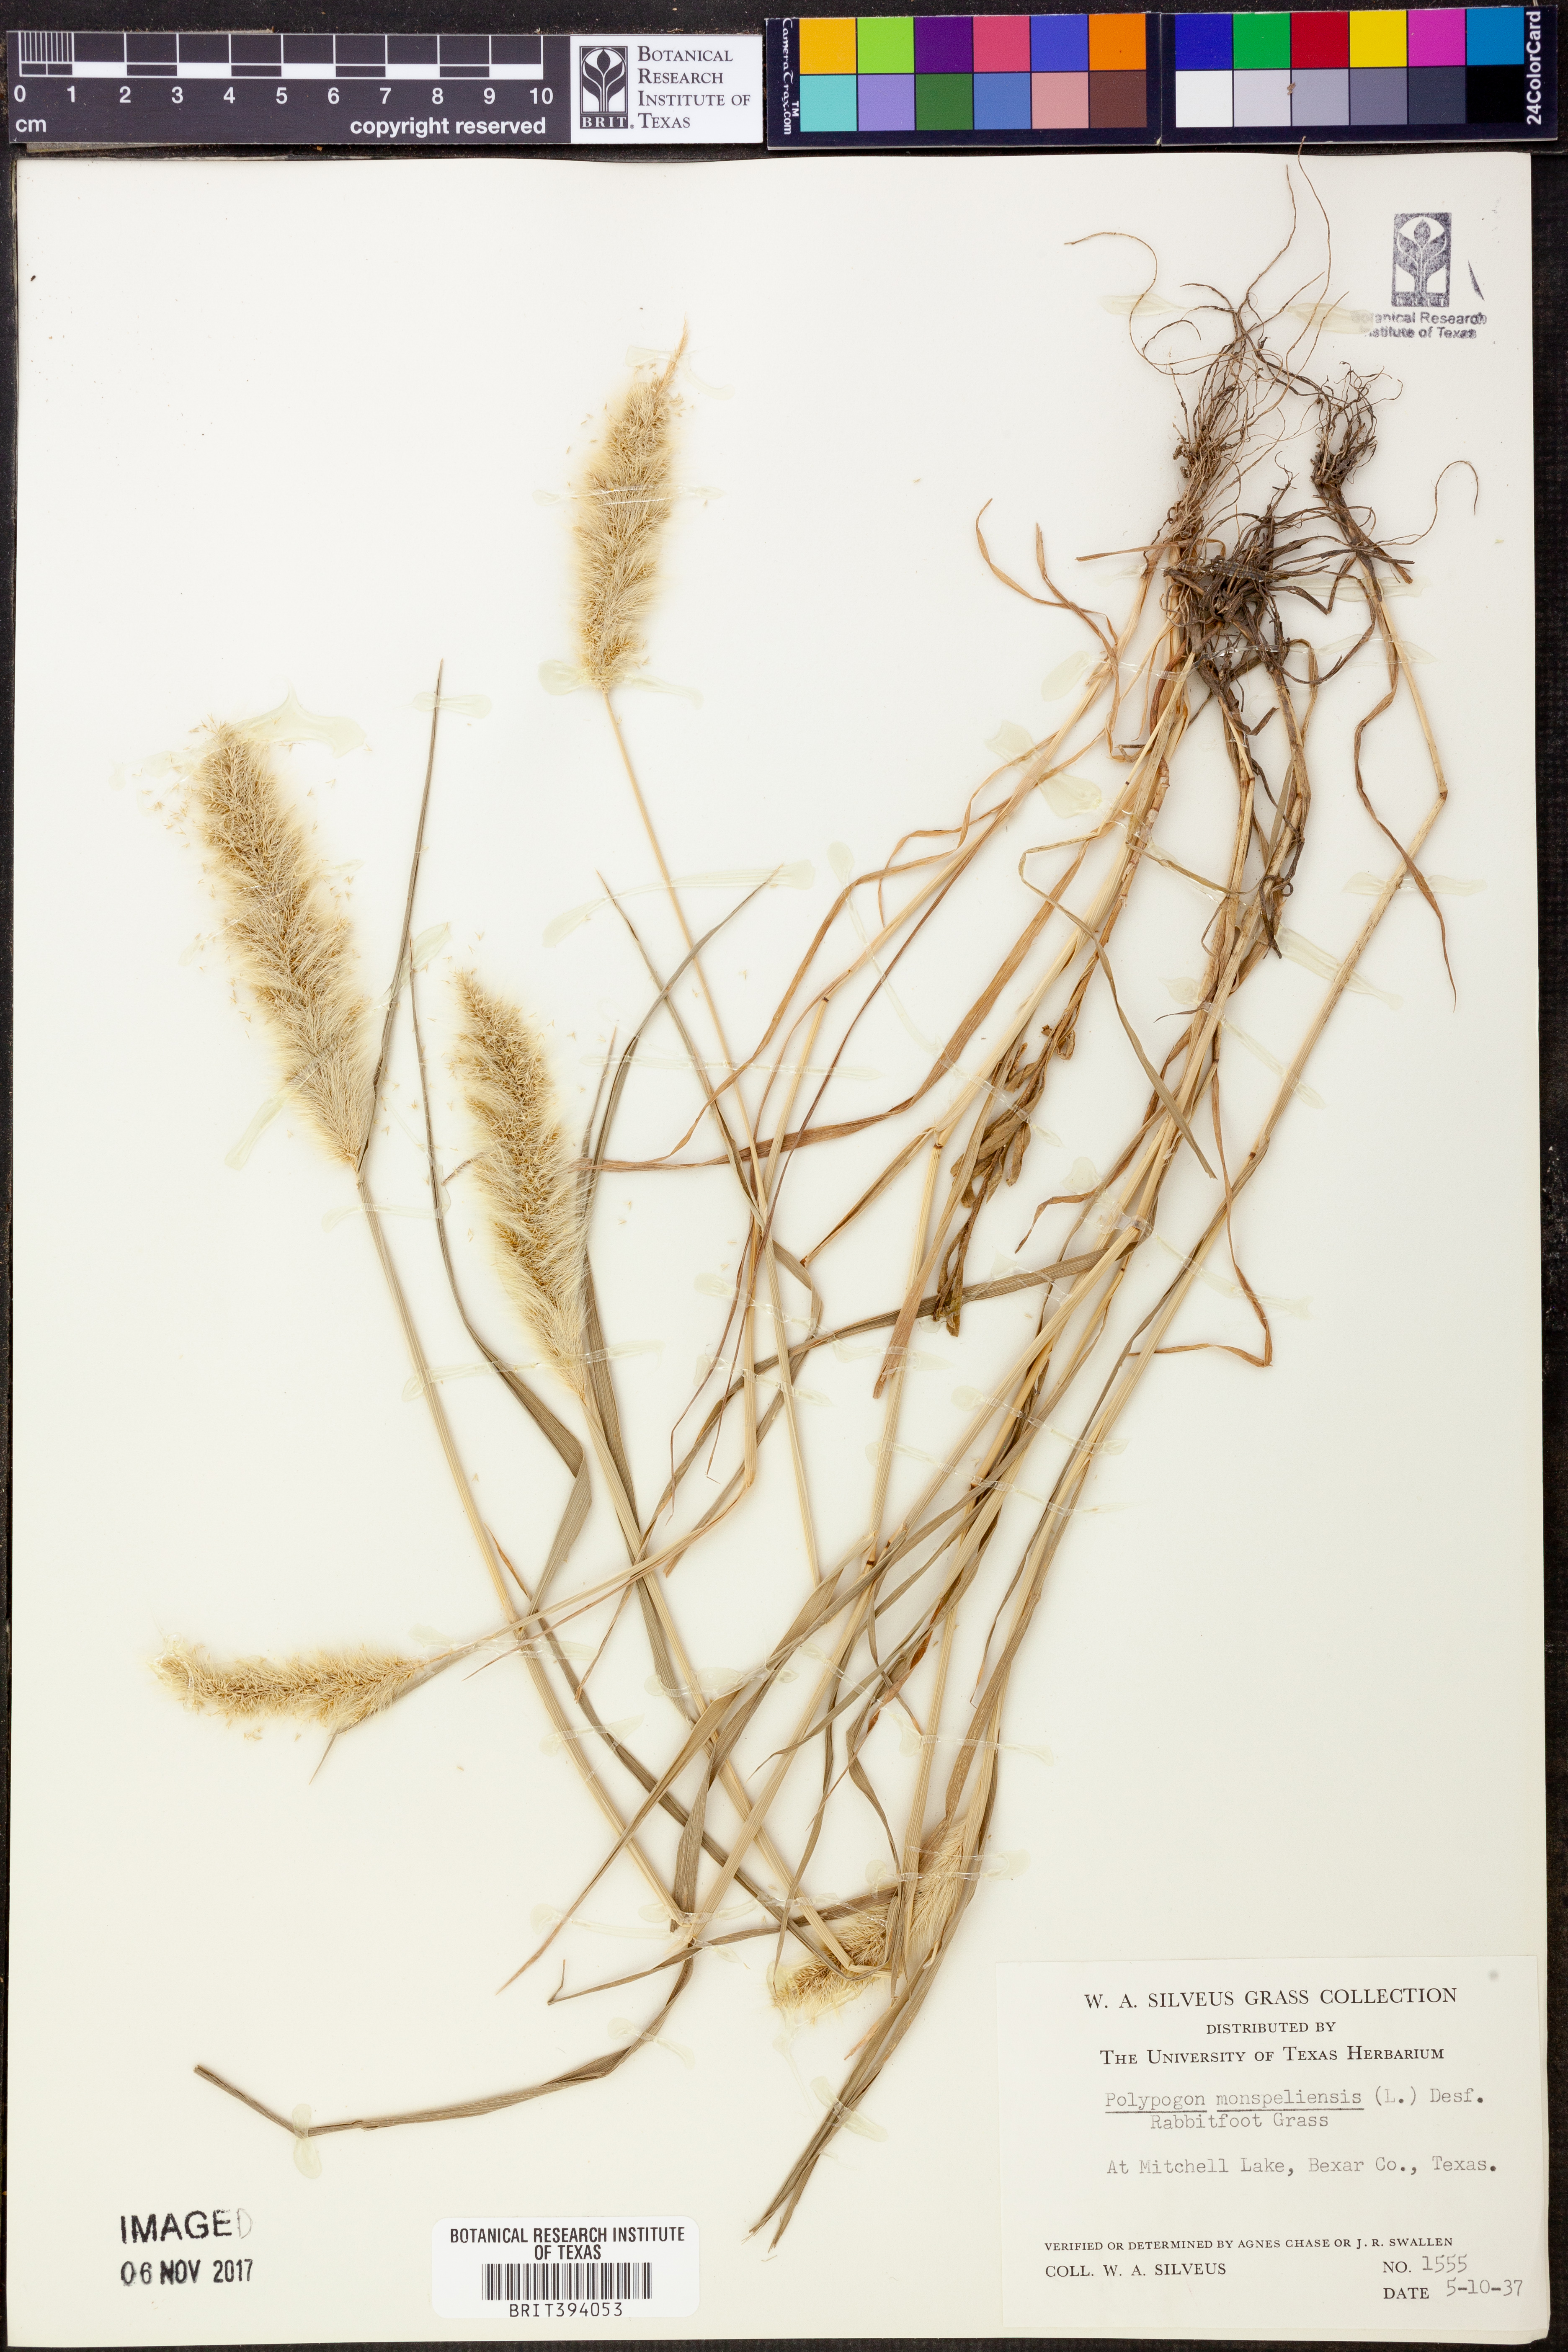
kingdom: Plantae
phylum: Tracheophyta
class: Liliopsida
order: Poales
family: Poaceae
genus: Polypogon
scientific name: Polypogon monspeliensis
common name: Annual rabbitsfoot grass
